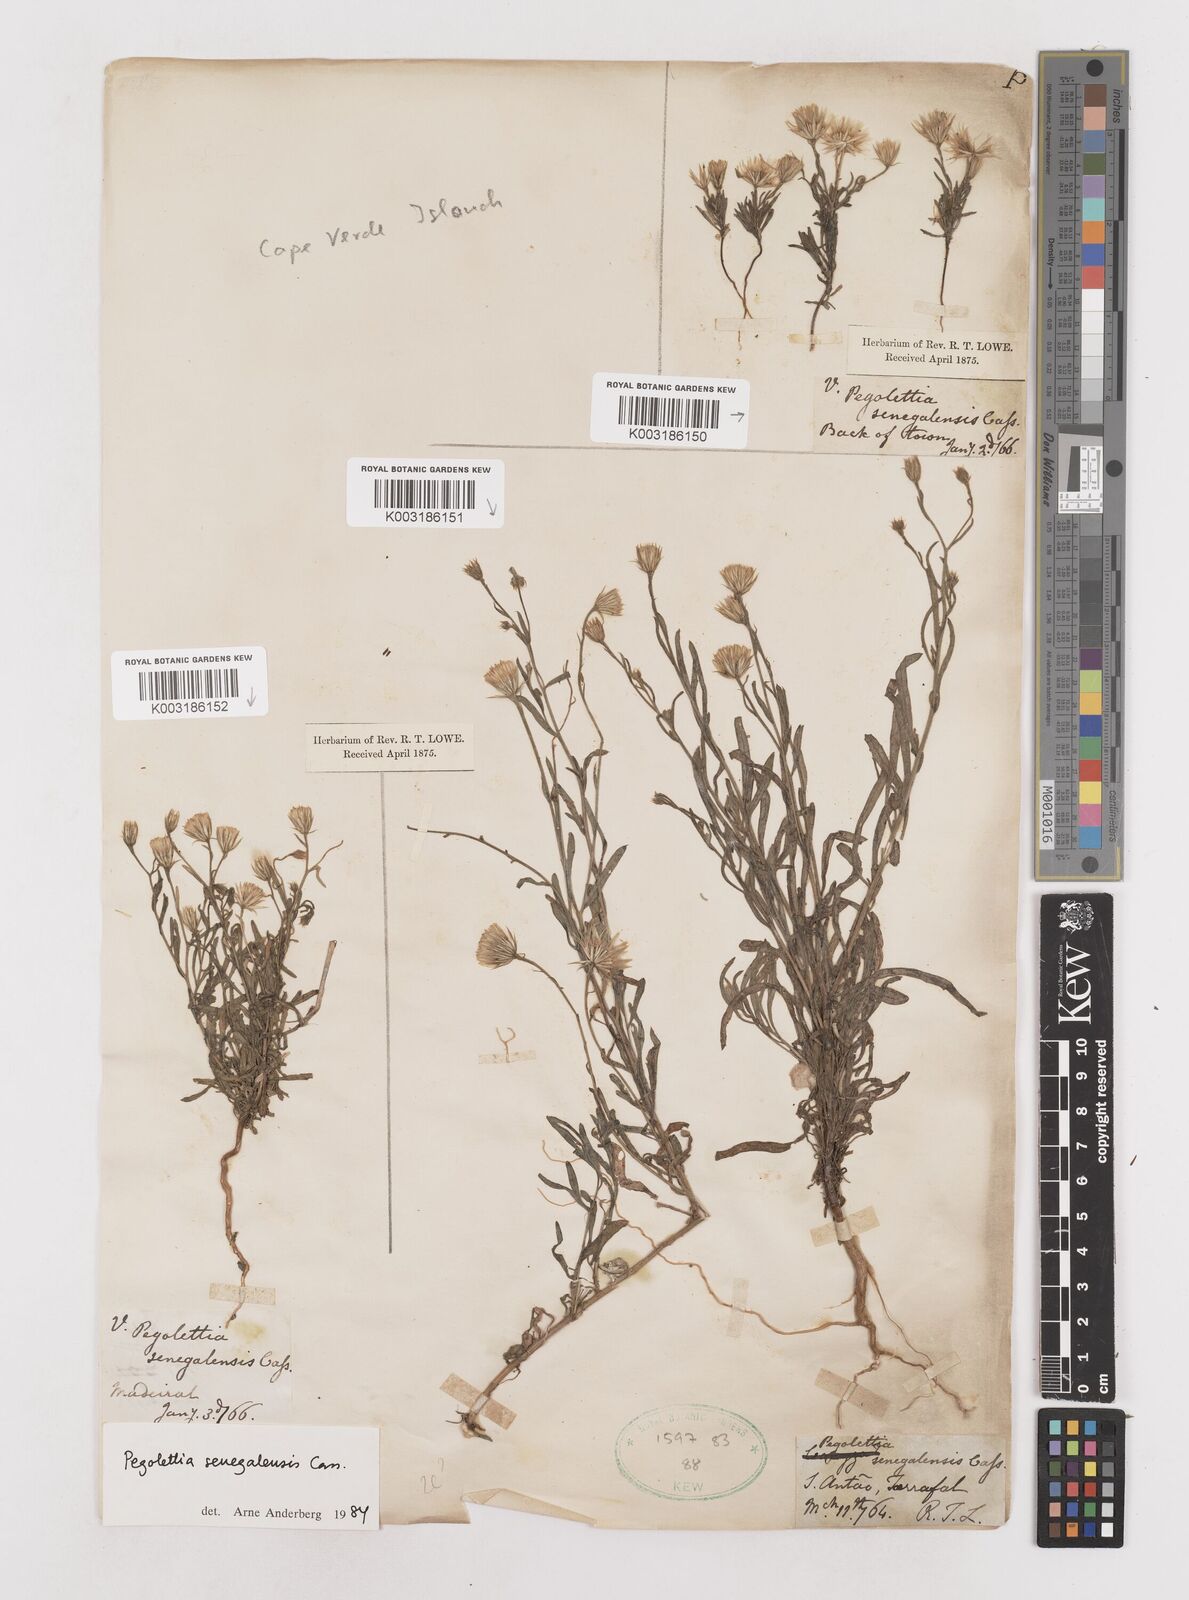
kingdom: Plantae
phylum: Tracheophyta
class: Magnoliopsida
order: Asterales
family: Asteraceae
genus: Pegolettia
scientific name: Pegolettia senegalensis
